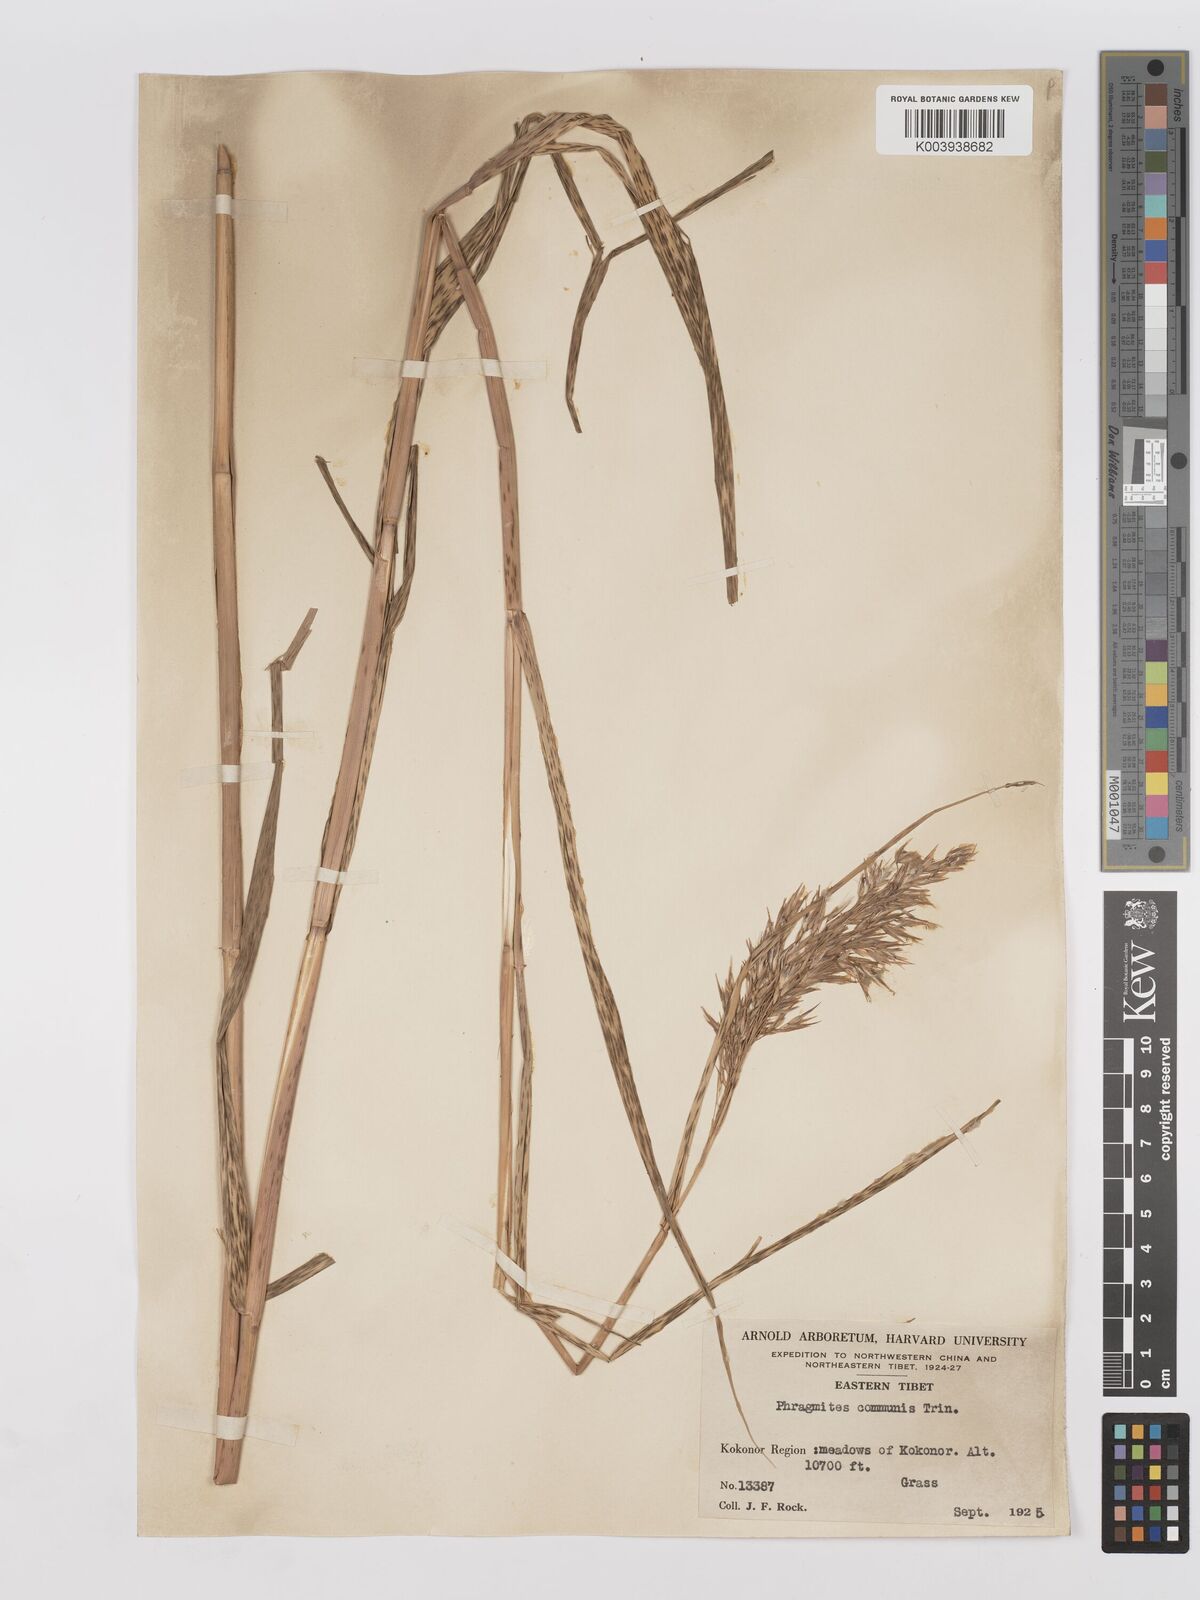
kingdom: Plantae
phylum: Tracheophyta
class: Liliopsida
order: Poales
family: Poaceae
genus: Phragmites
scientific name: Phragmites australis
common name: Common reed
